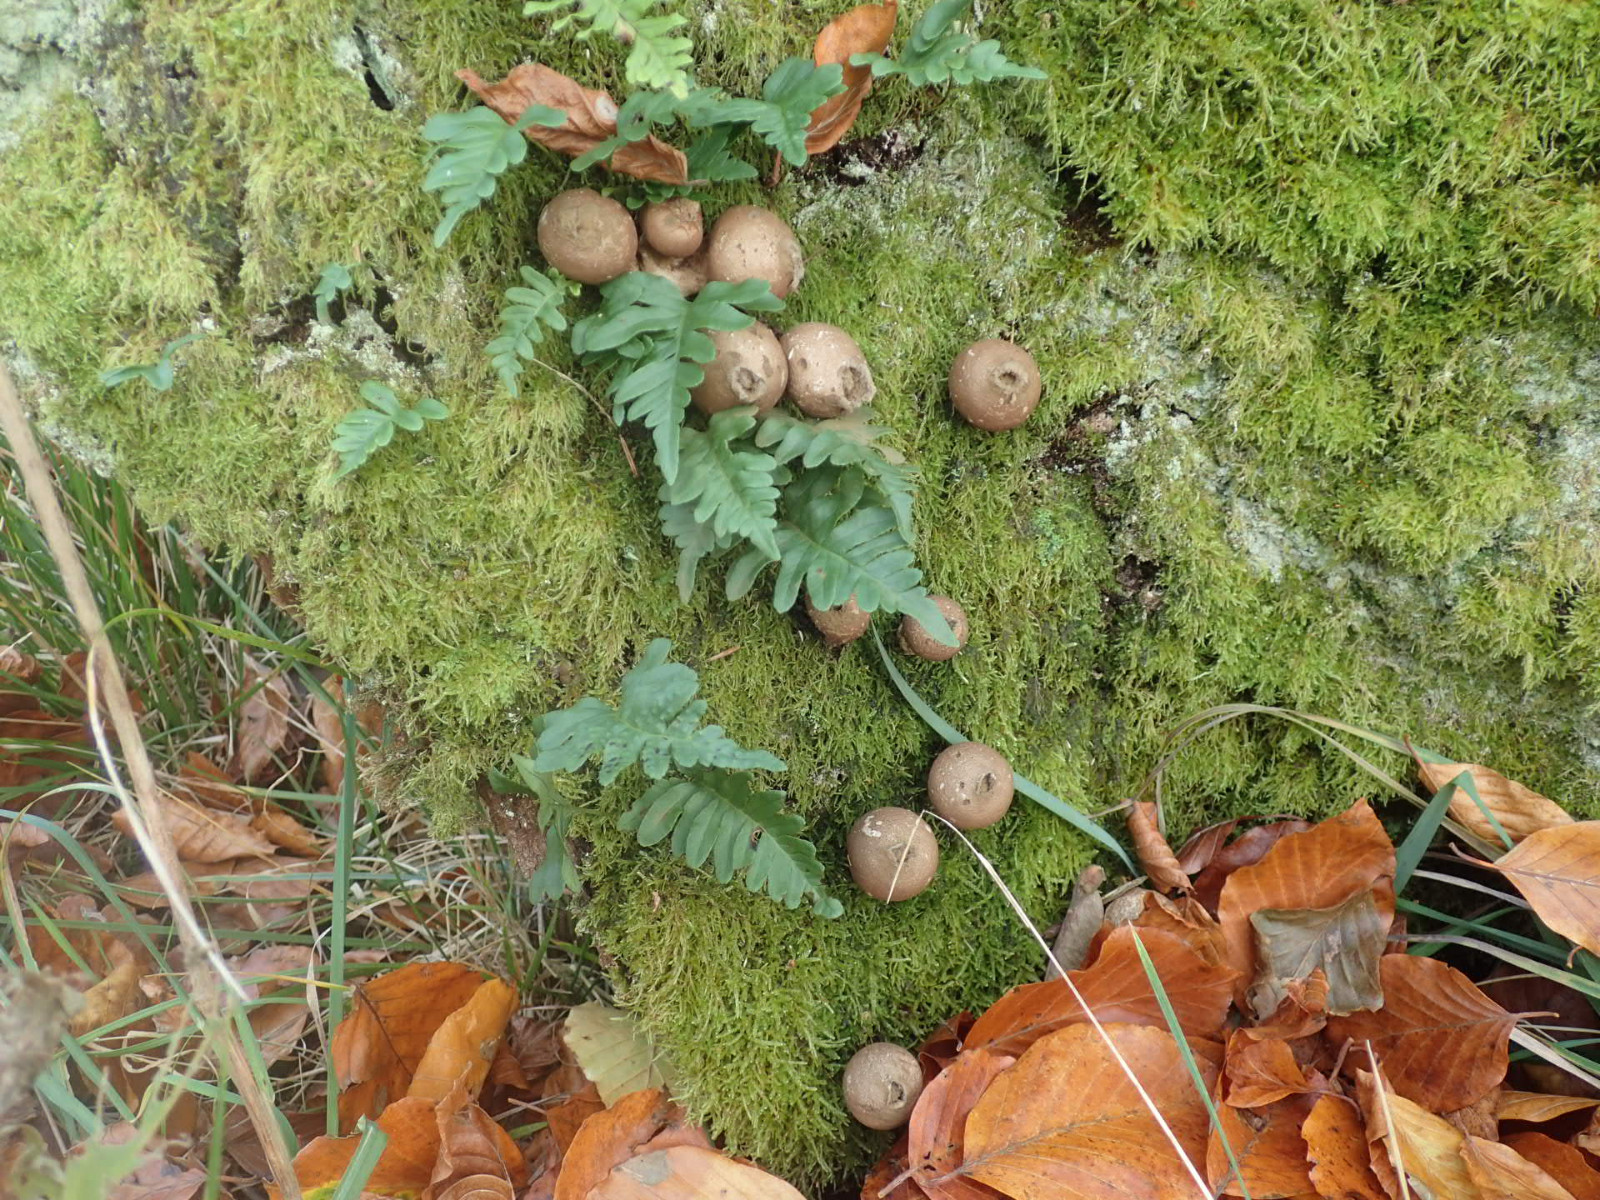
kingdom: Fungi
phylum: Basidiomycota
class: Agaricomycetes
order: Agaricales
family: Lycoperdaceae
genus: Apioperdon
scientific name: Apioperdon pyriforme
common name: pære-støvbold
